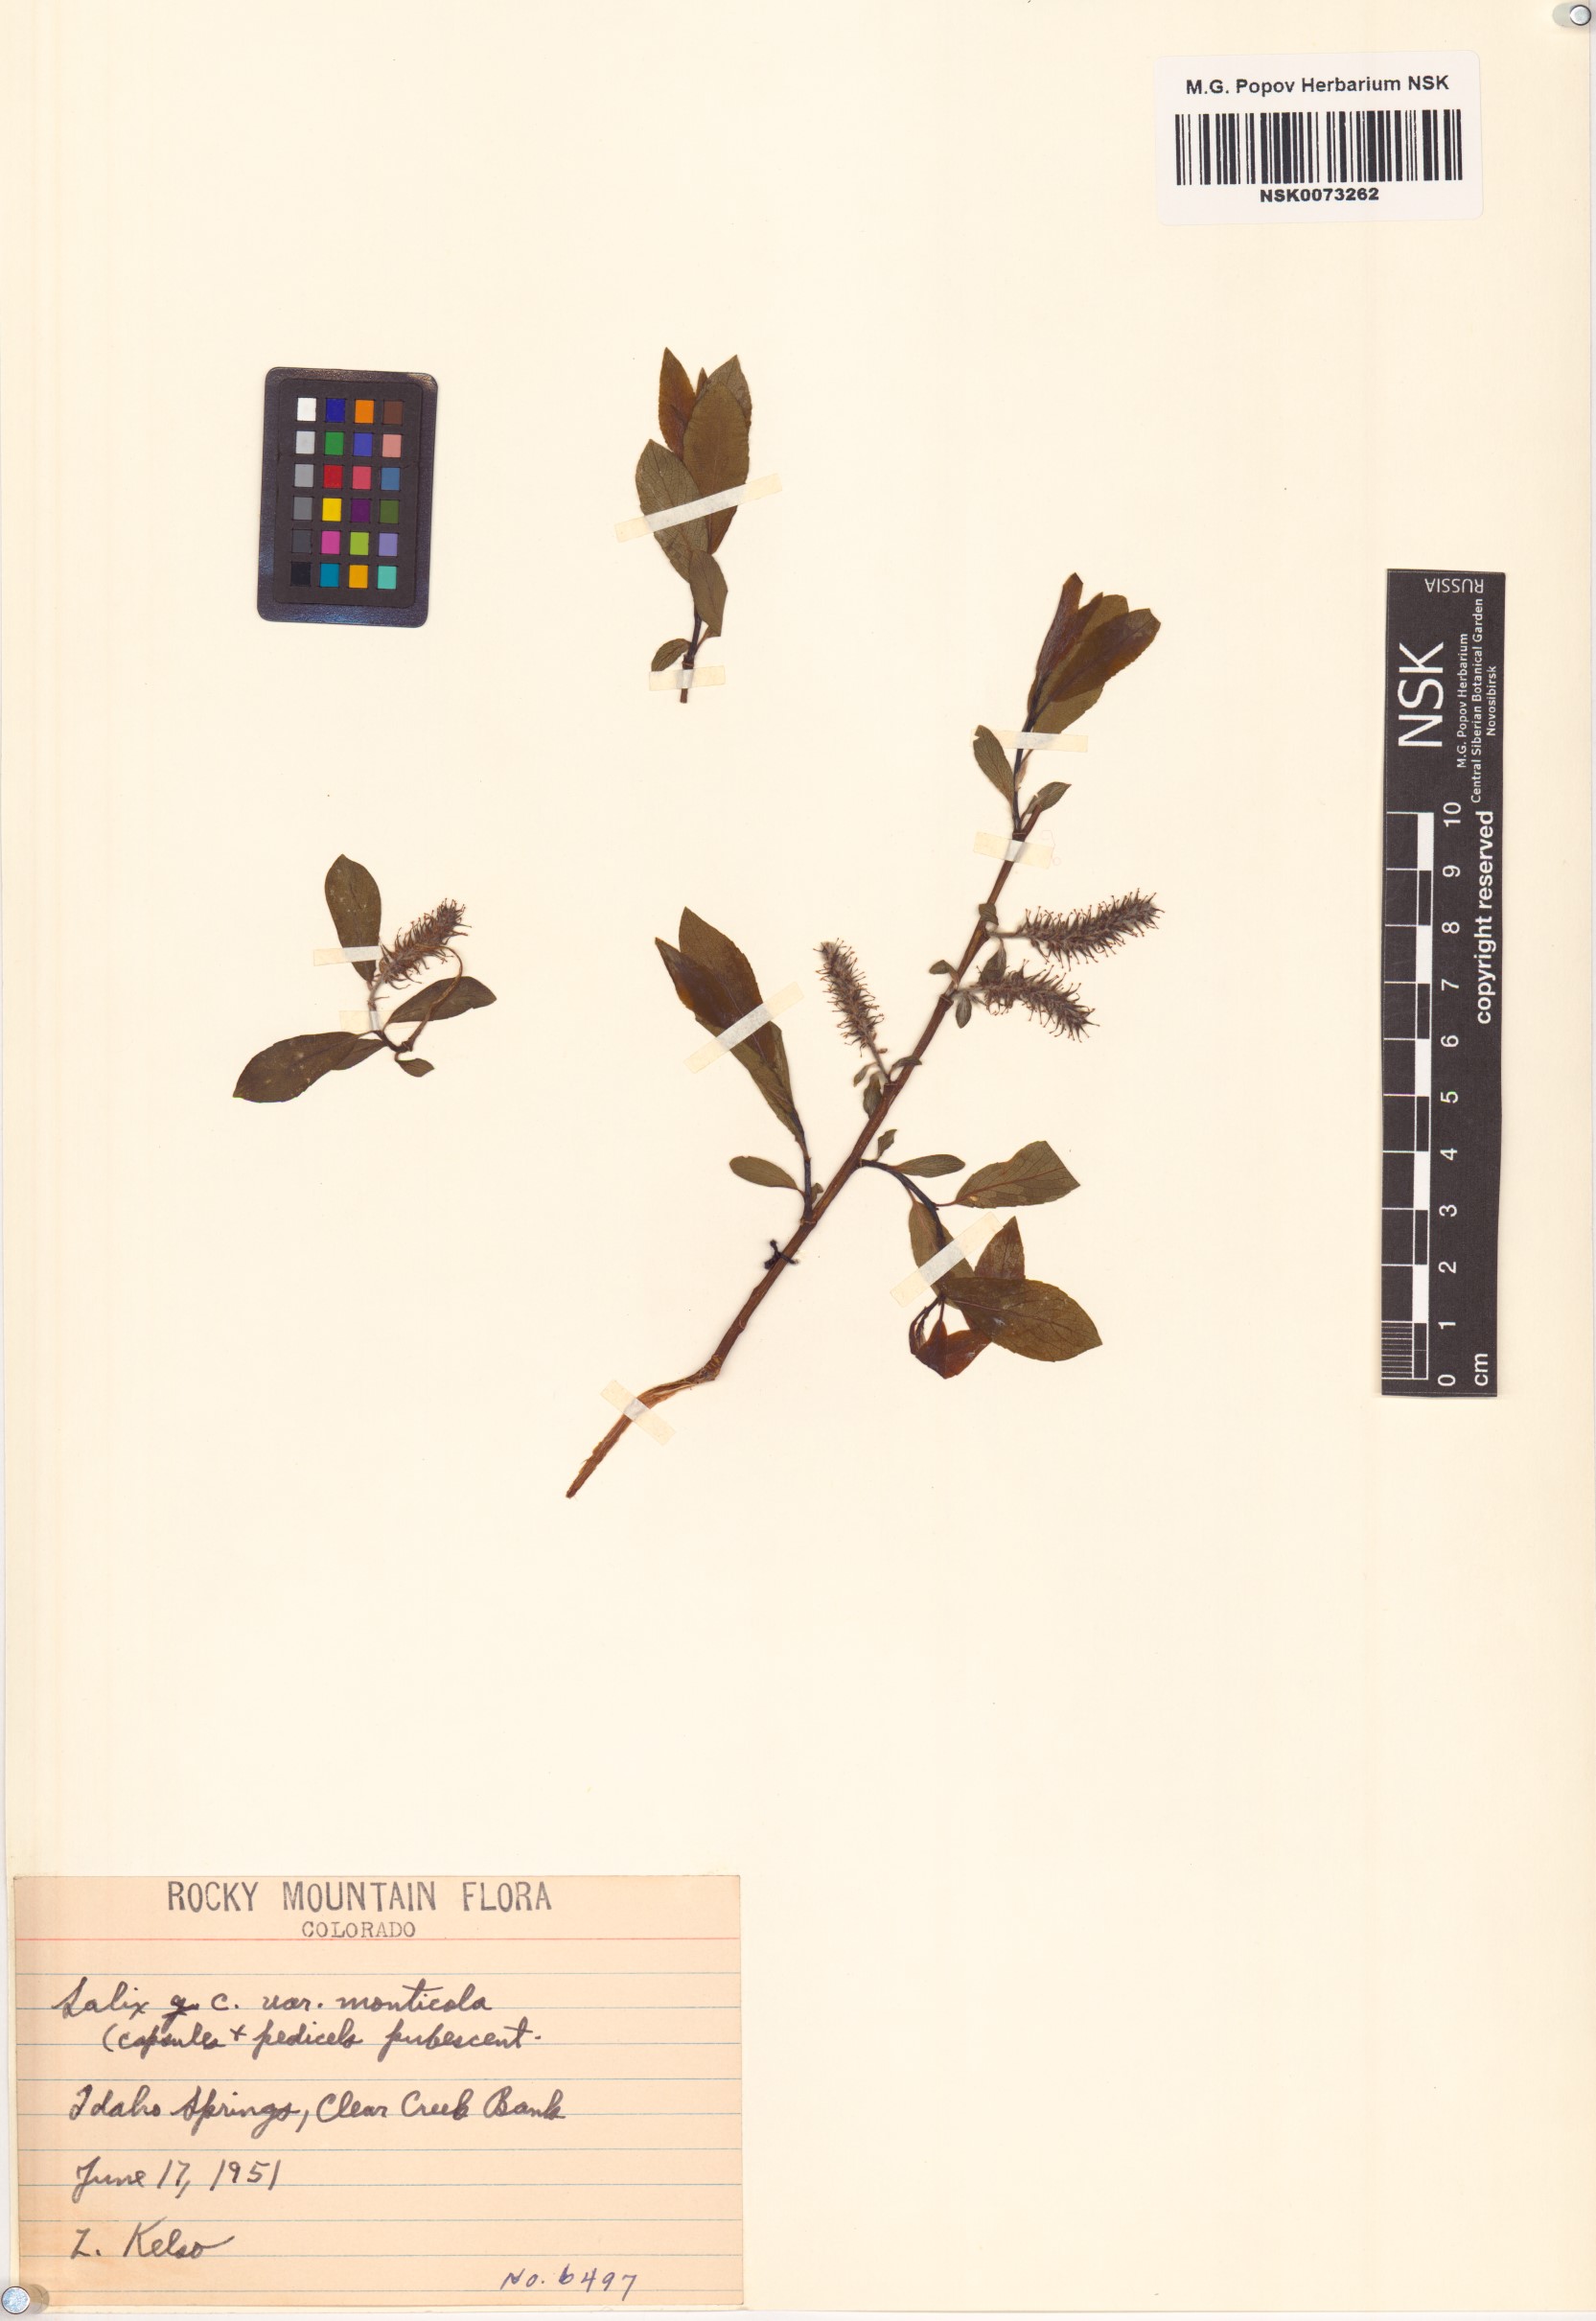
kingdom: Plantae
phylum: Tracheophyta
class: Magnoliopsida
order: Malpighiales
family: Salicaceae
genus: Salix
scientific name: Salix monticola
